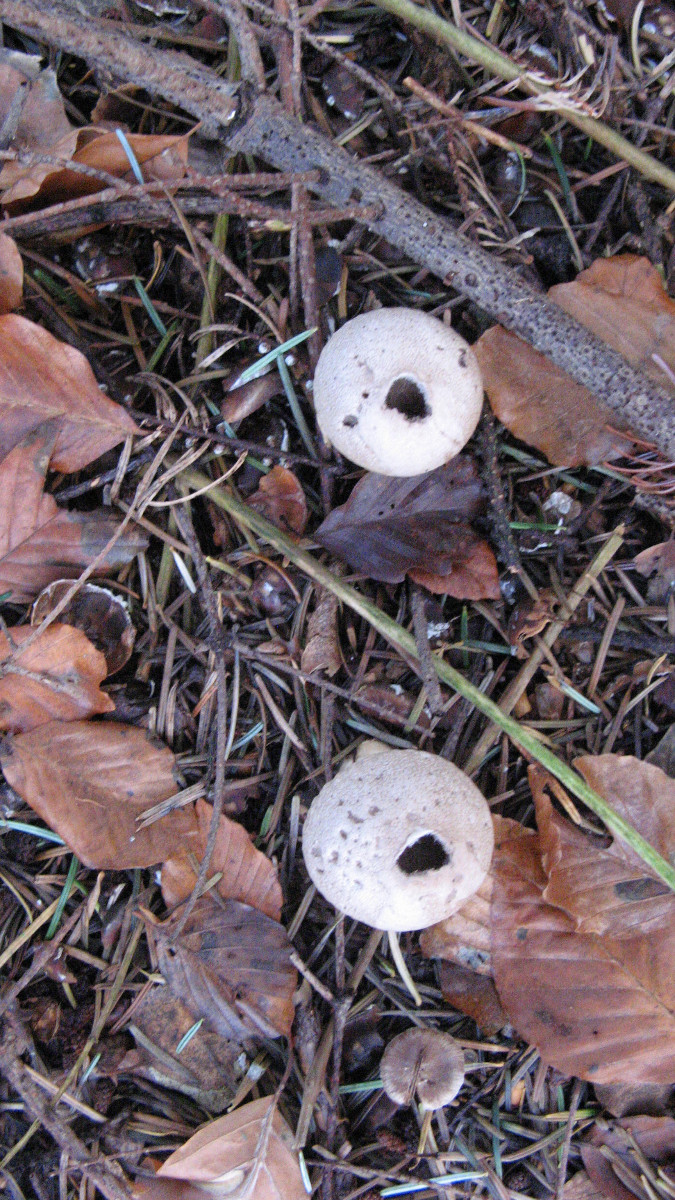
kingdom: Fungi
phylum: Basidiomycota
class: Agaricomycetes
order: Agaricales
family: Lycoperdaceae
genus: Lycoperdon
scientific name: Lycoperdon perlatum
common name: krystal-støvbold
